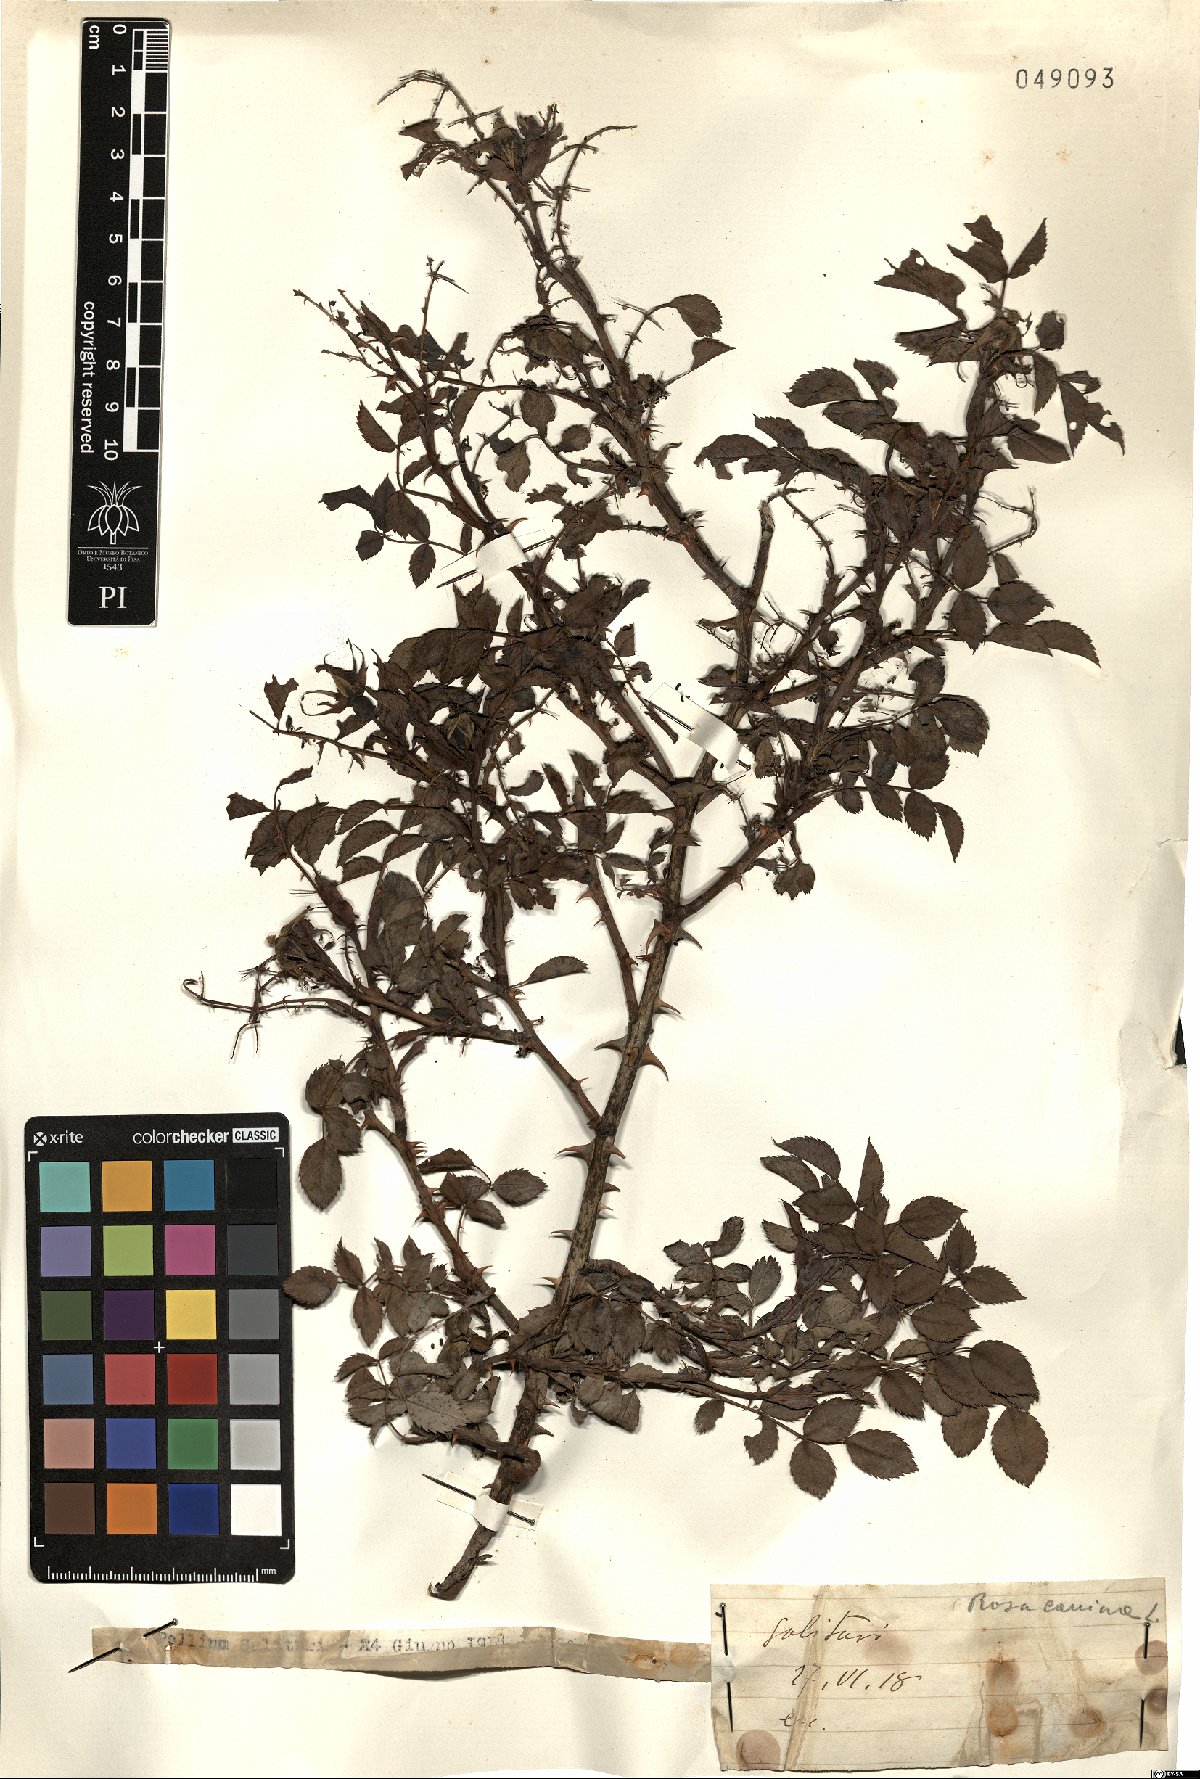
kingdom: Plantae
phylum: Tracheophyta
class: Magnoliopsida
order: Rosales
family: Rosaceae
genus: Rosa
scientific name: Rosa canina
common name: Dog rose
